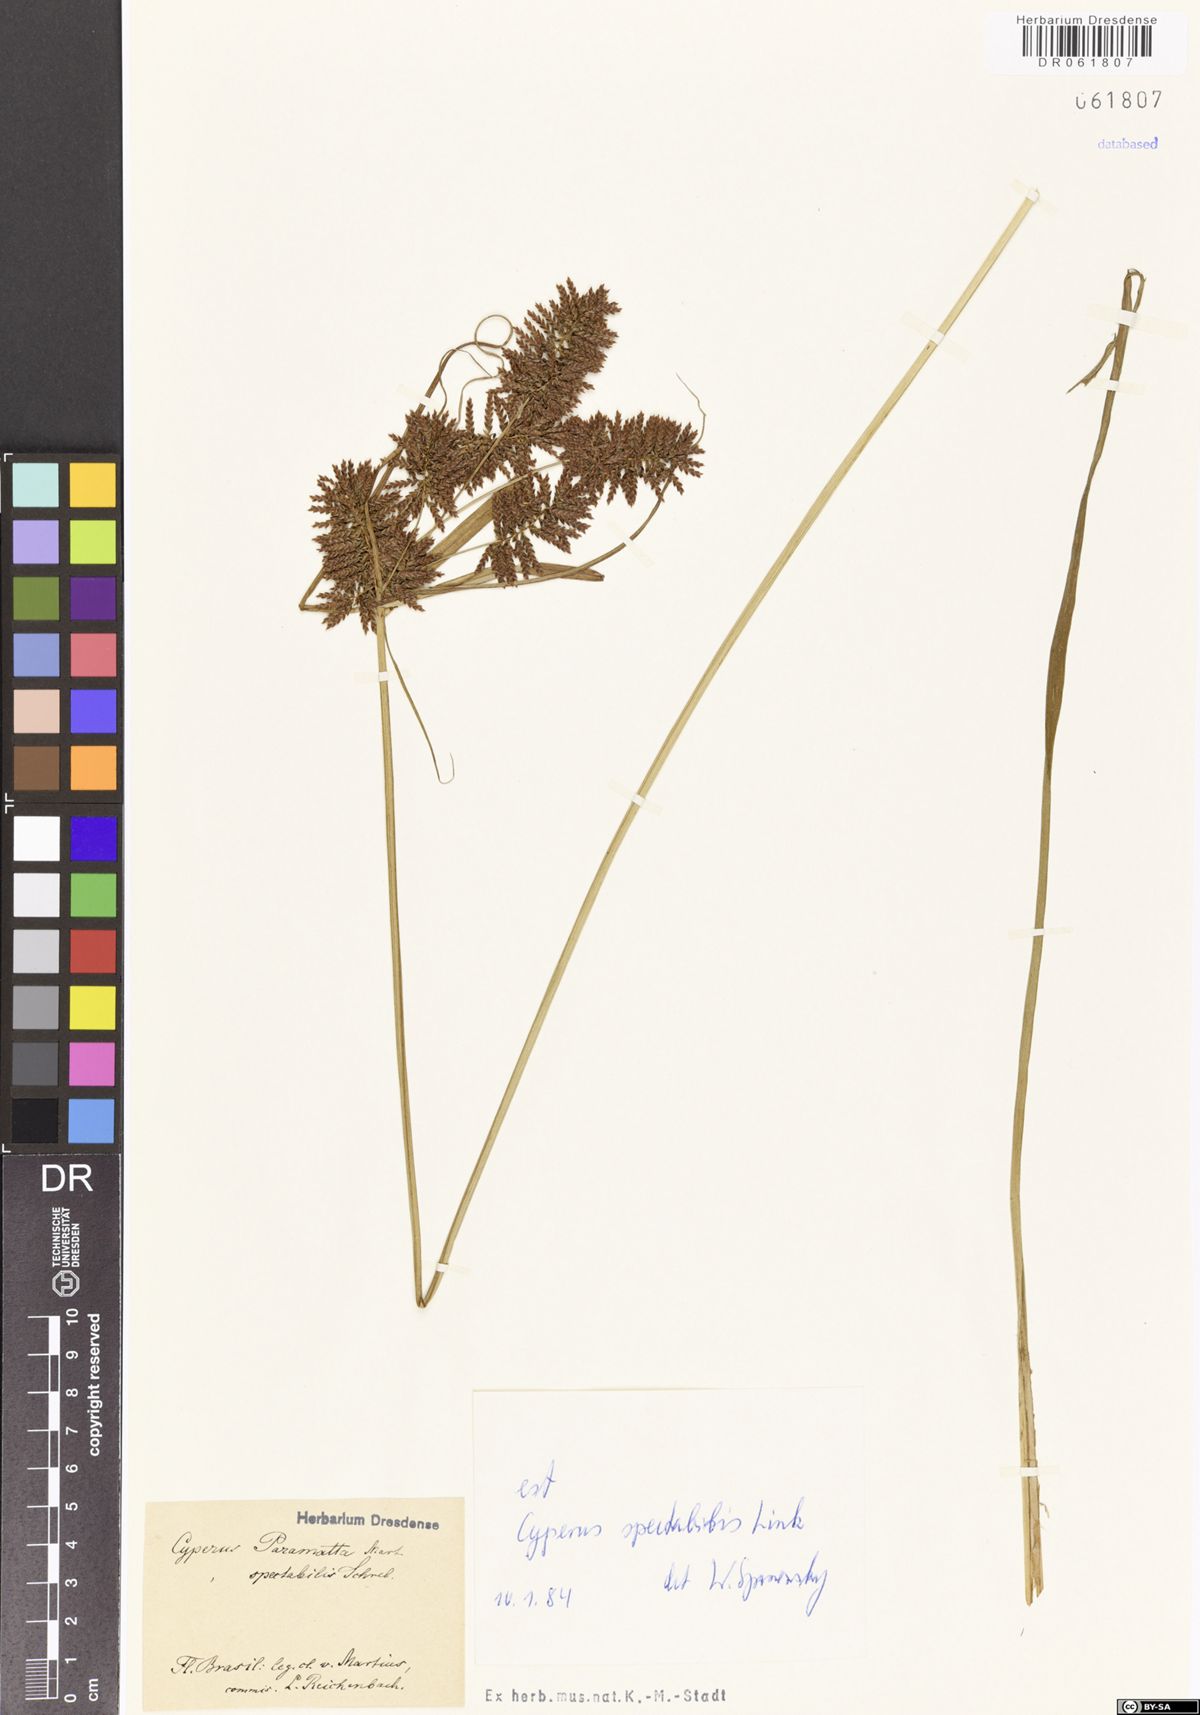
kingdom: Plantae
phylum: Tracheophyta
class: Liliopsida
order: Poales
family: Cyperaceae
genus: Cyperus
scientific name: Cyperus spectabilis
